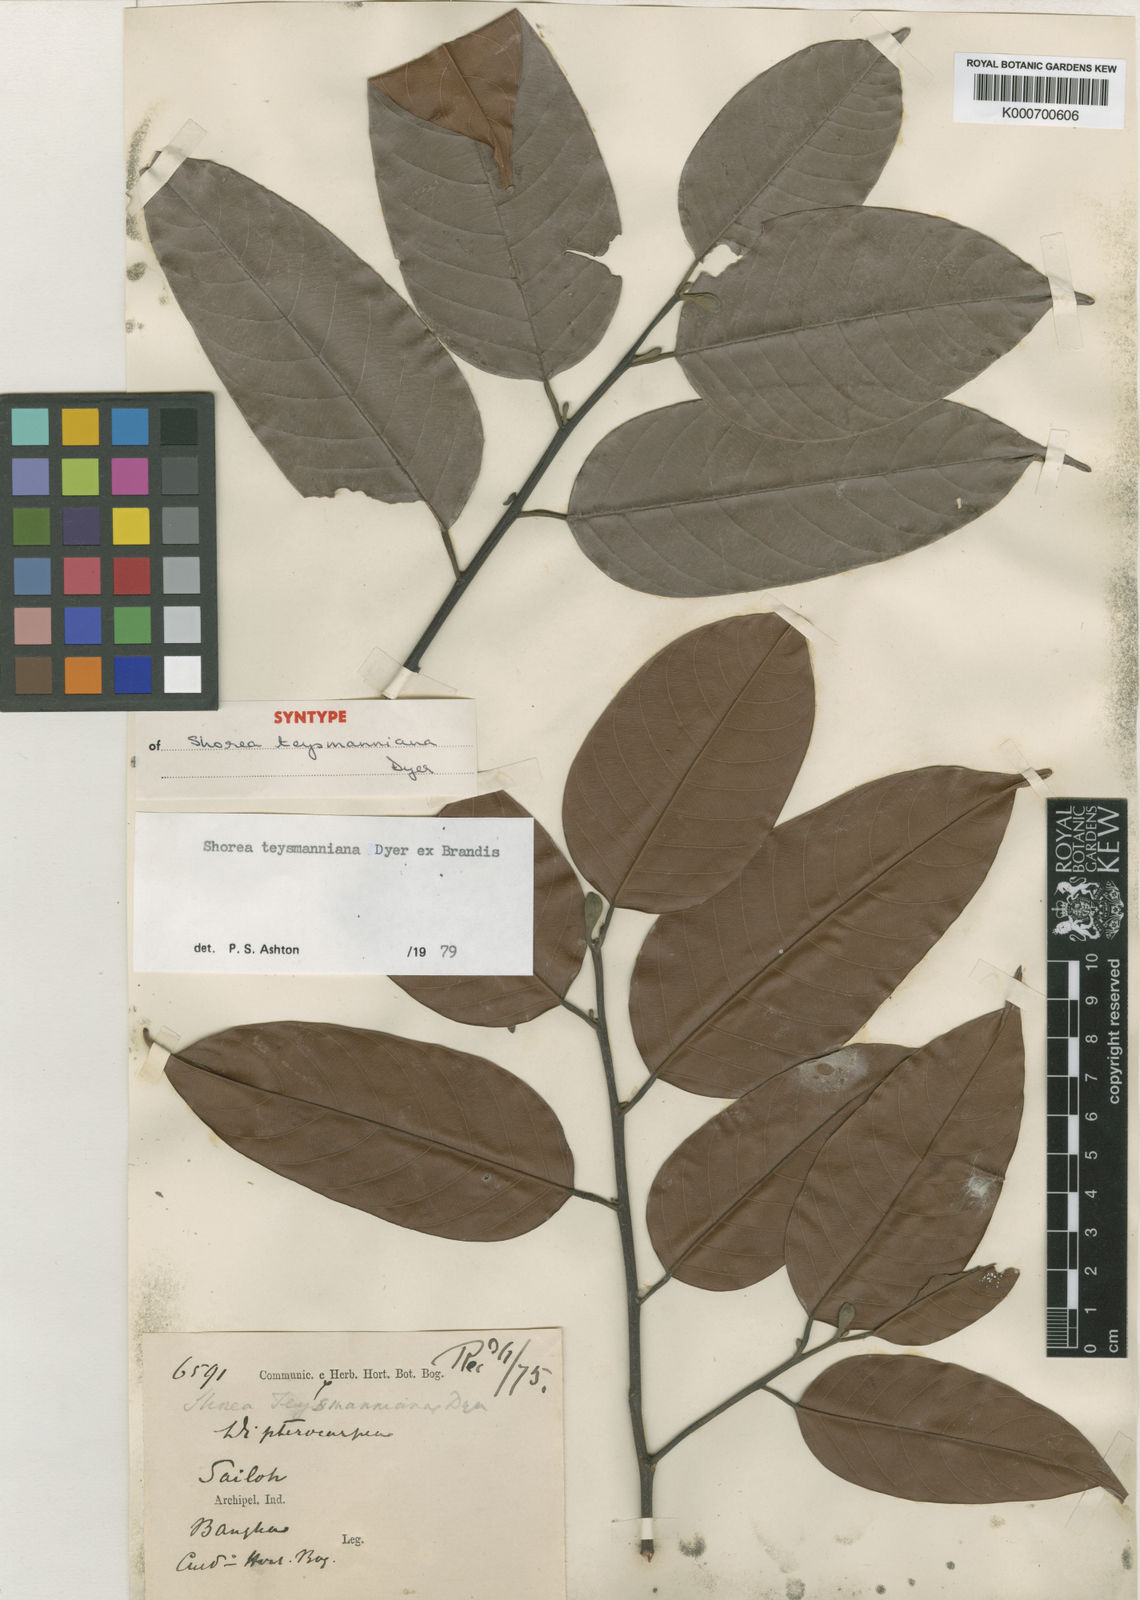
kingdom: Plantae
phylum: Tracheophyta
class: Magnoliopsida
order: Malvales
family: Dipterocarpaceae
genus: Shorea
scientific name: Shorea teysmanniana
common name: Light red meranti
